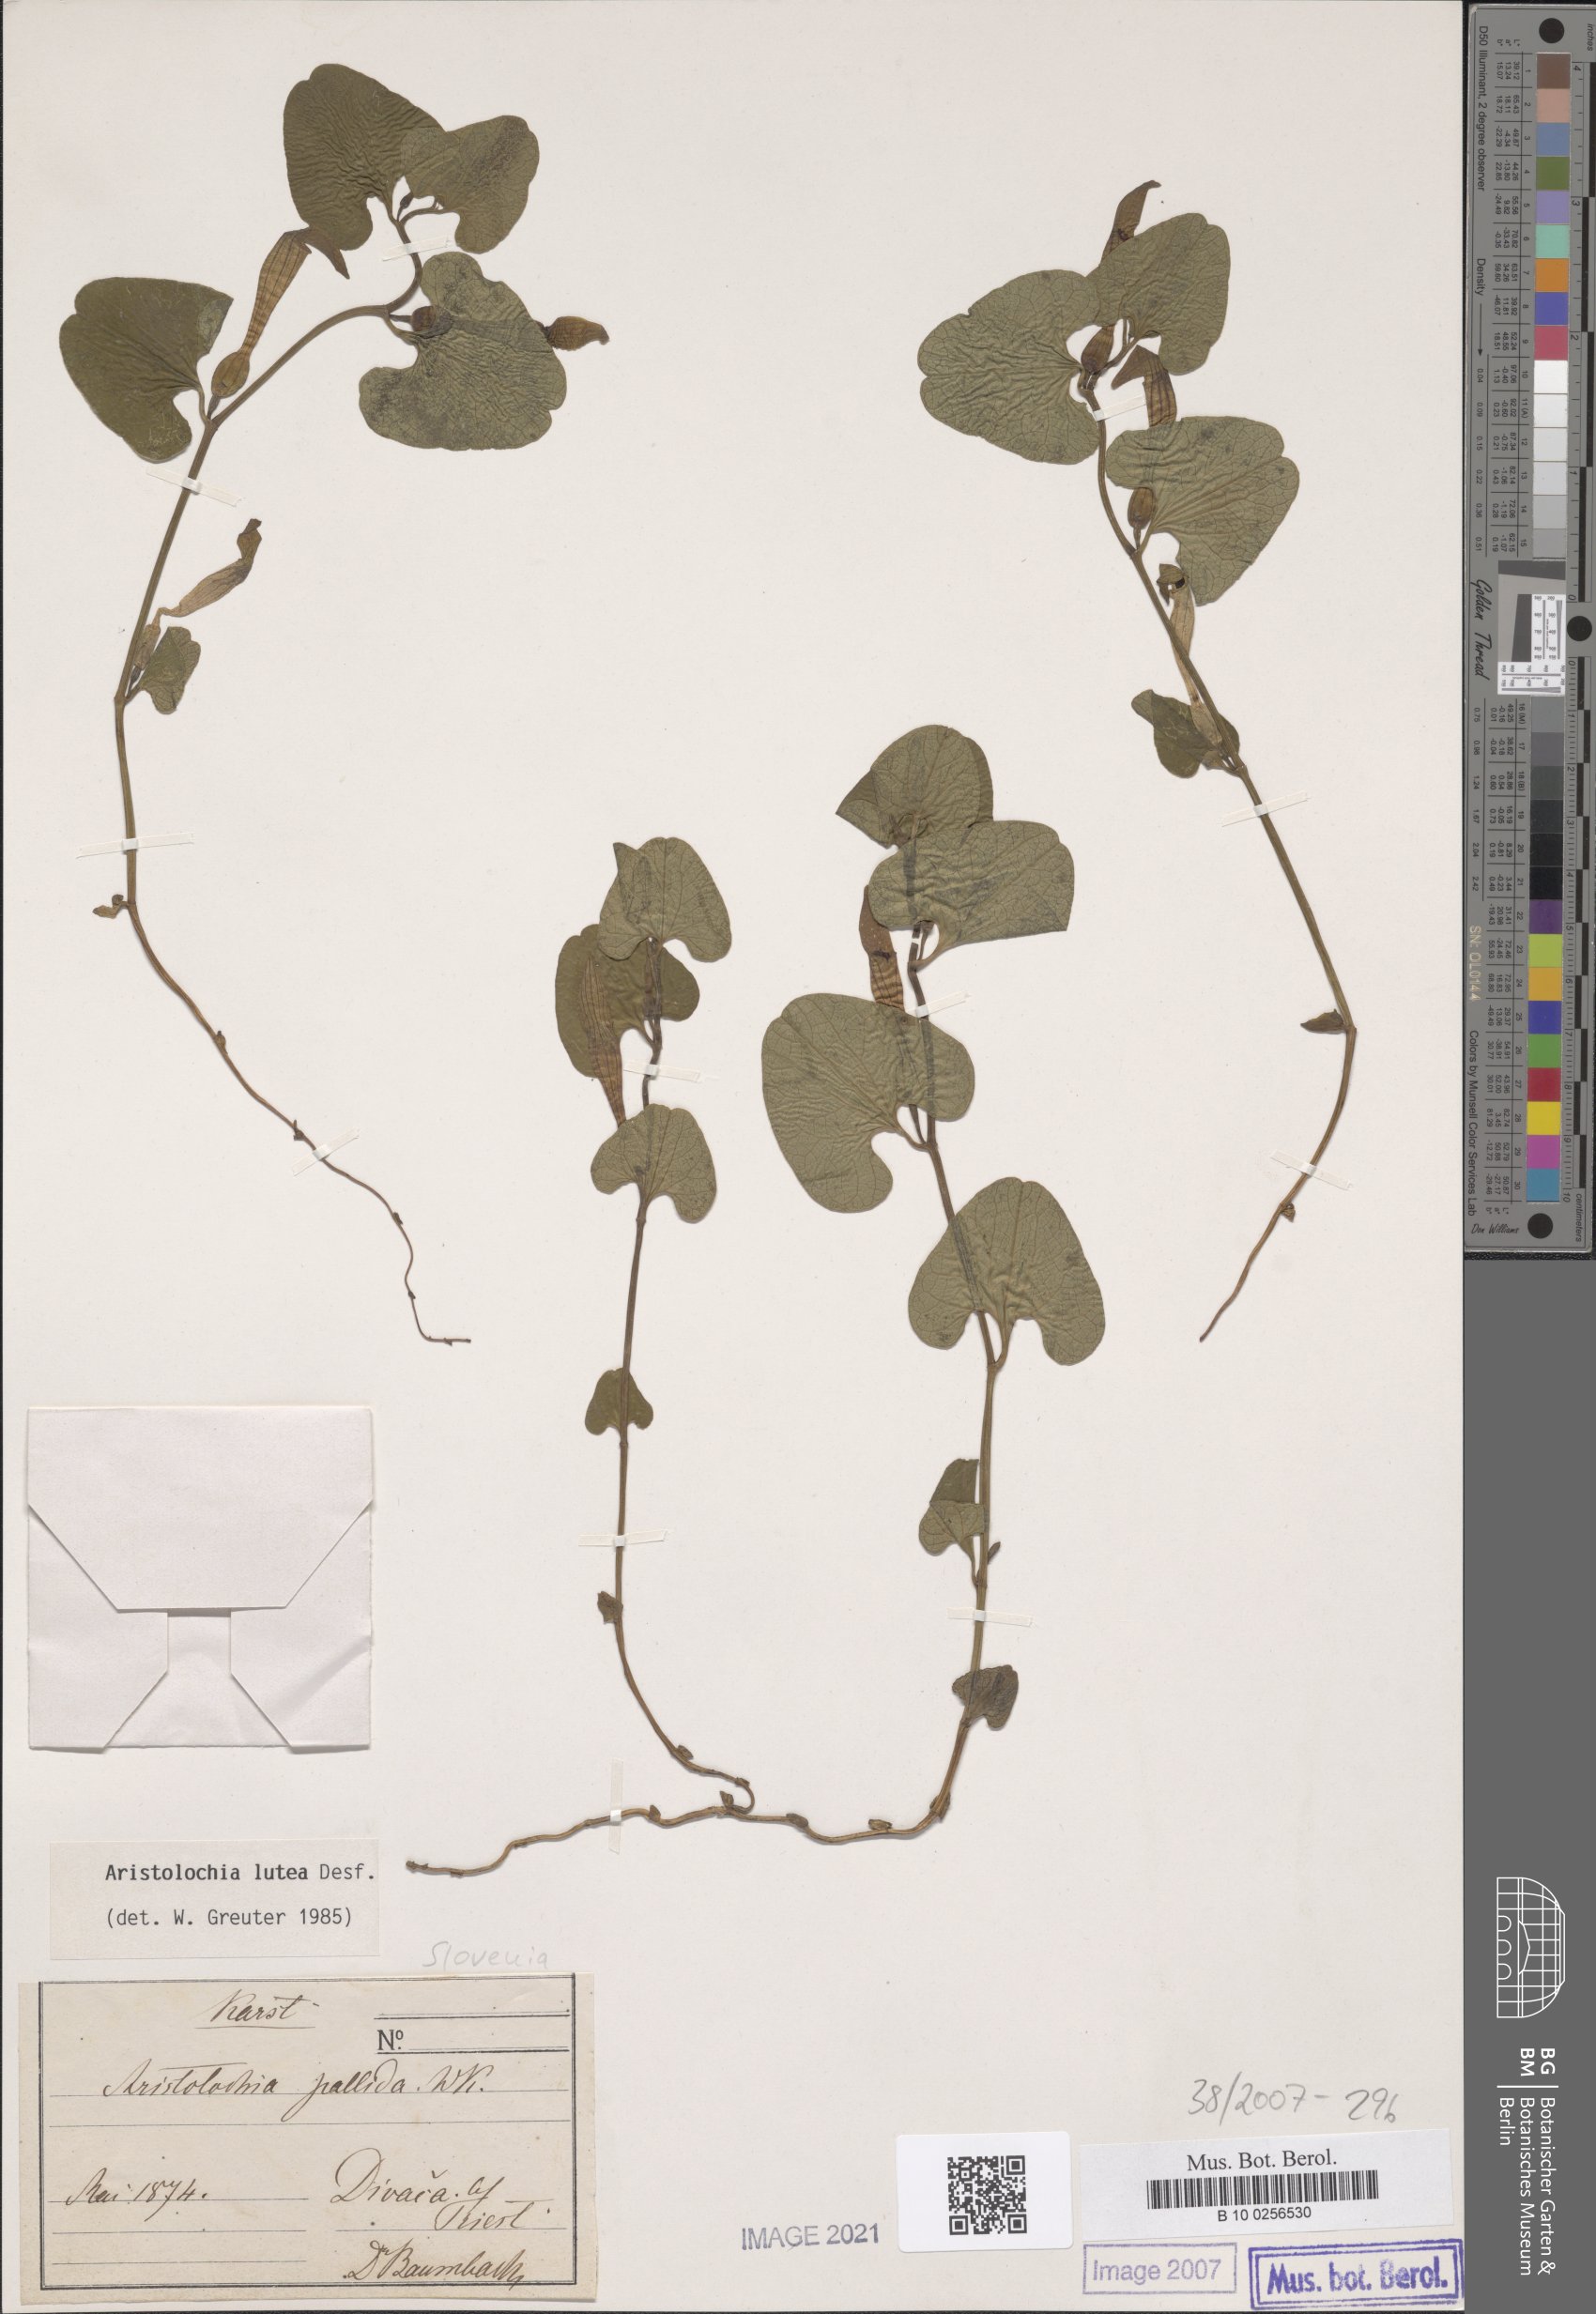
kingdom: Plantae
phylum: Tracheophyta
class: Magnoliopsida
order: Piperales
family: Aristolochiaceae
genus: Aristolochia
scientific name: Aristolochia lutea
